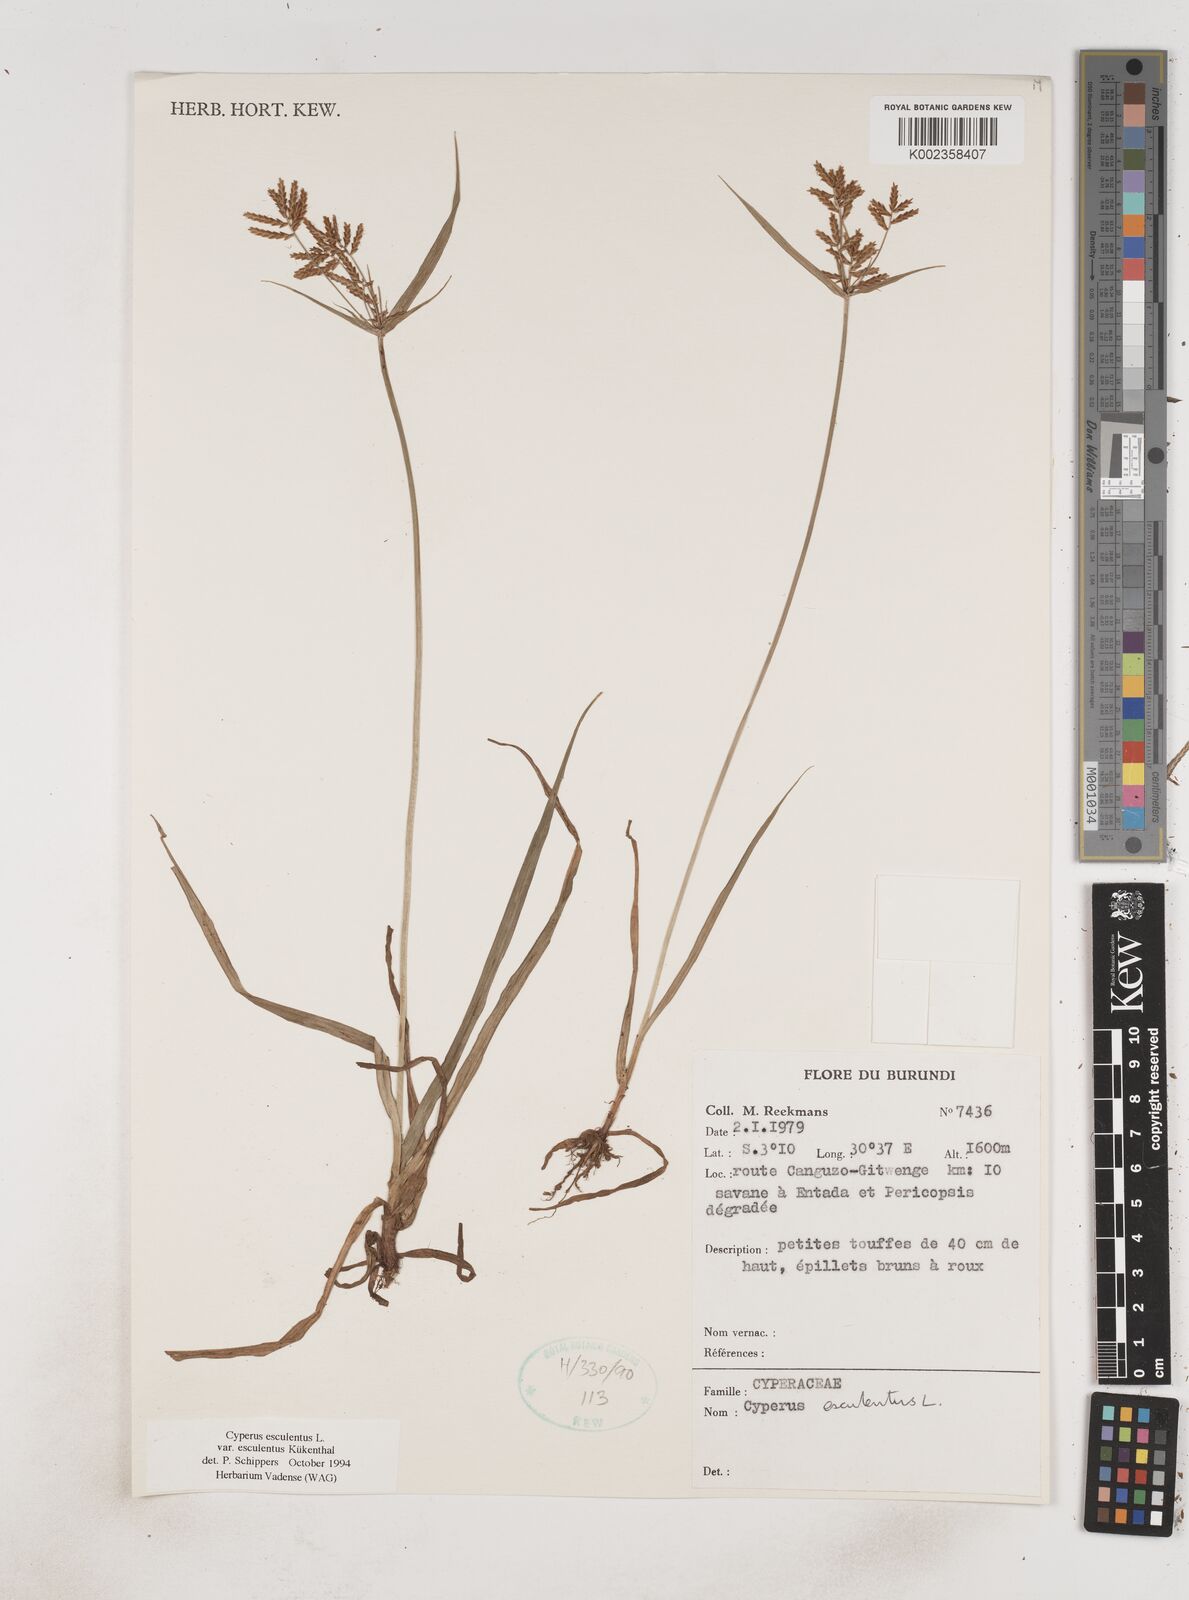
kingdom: Plantae
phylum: Tracheophyta
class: Liliopsida
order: Poales
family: Cyperaceae
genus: Cyperus
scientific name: Cyperus esculentus
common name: Yellow nutsedge
